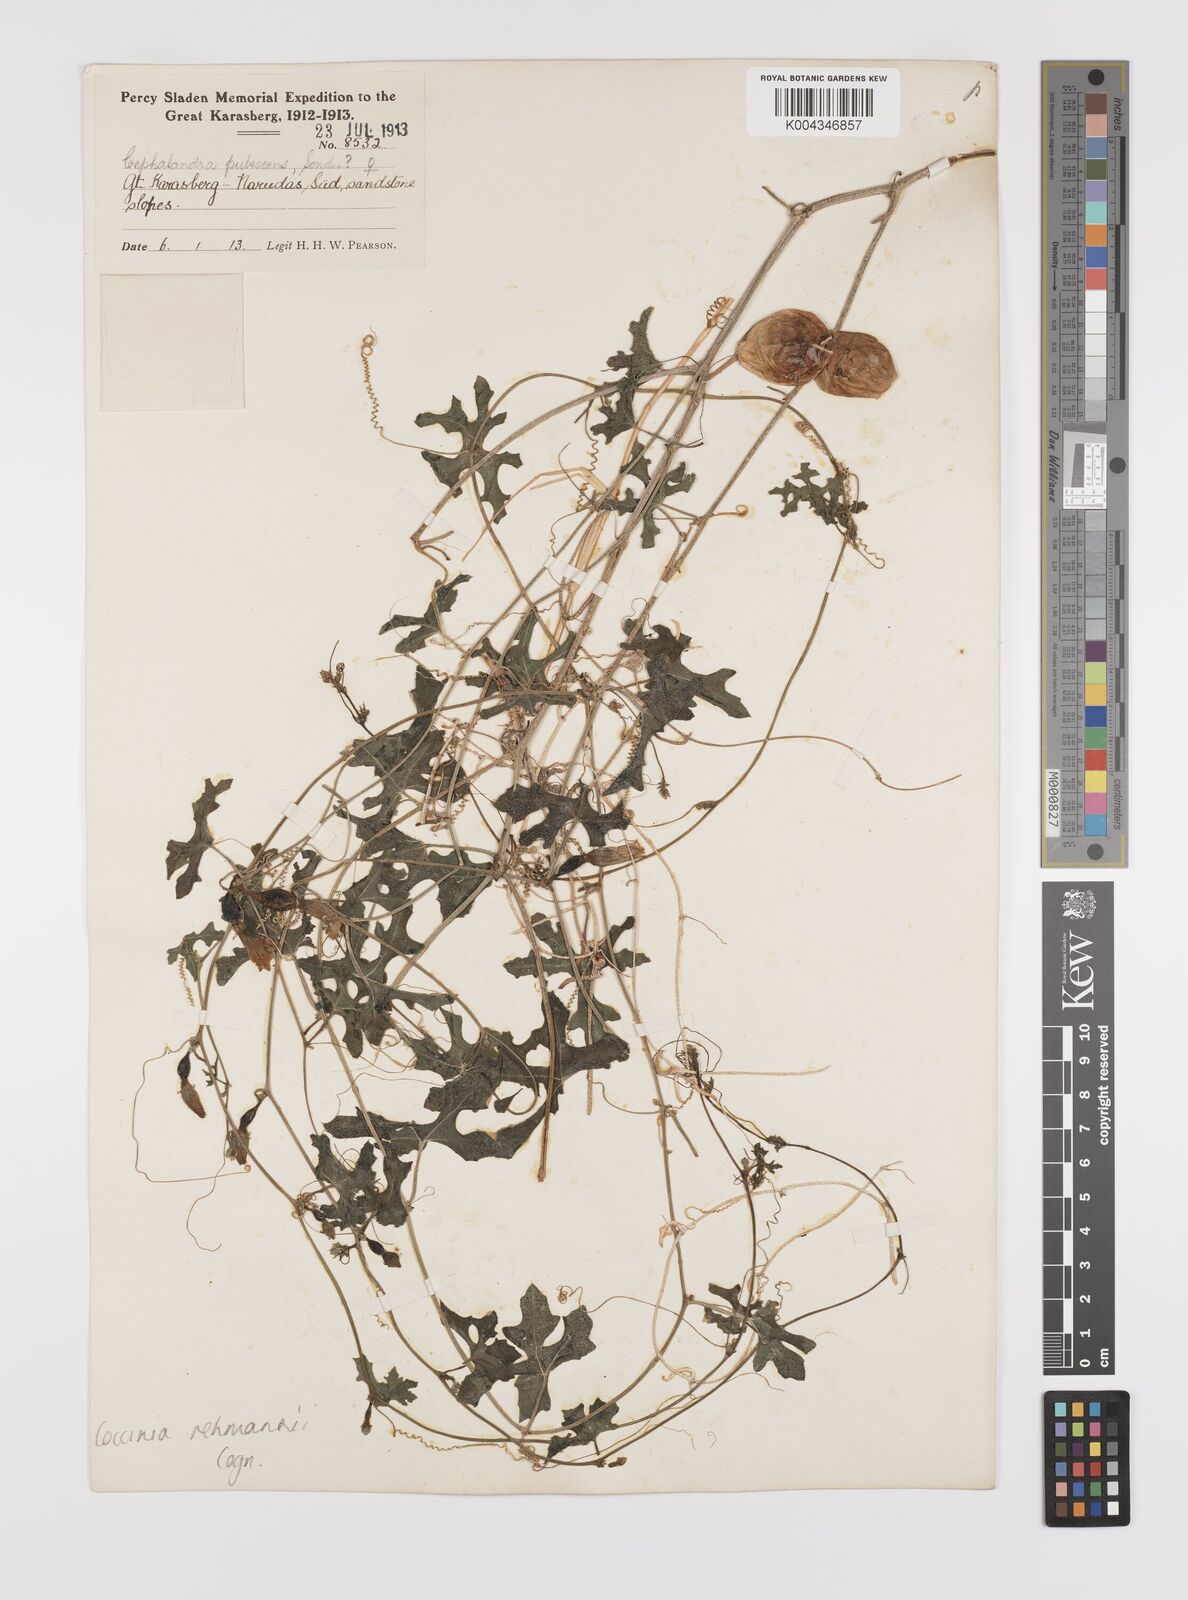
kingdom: Plantae
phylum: Tracheophyta
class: Magnoliopsida
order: Cucurbitales
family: Cucurbitaceae
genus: Coccinia
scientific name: Coccinia rehmannii
